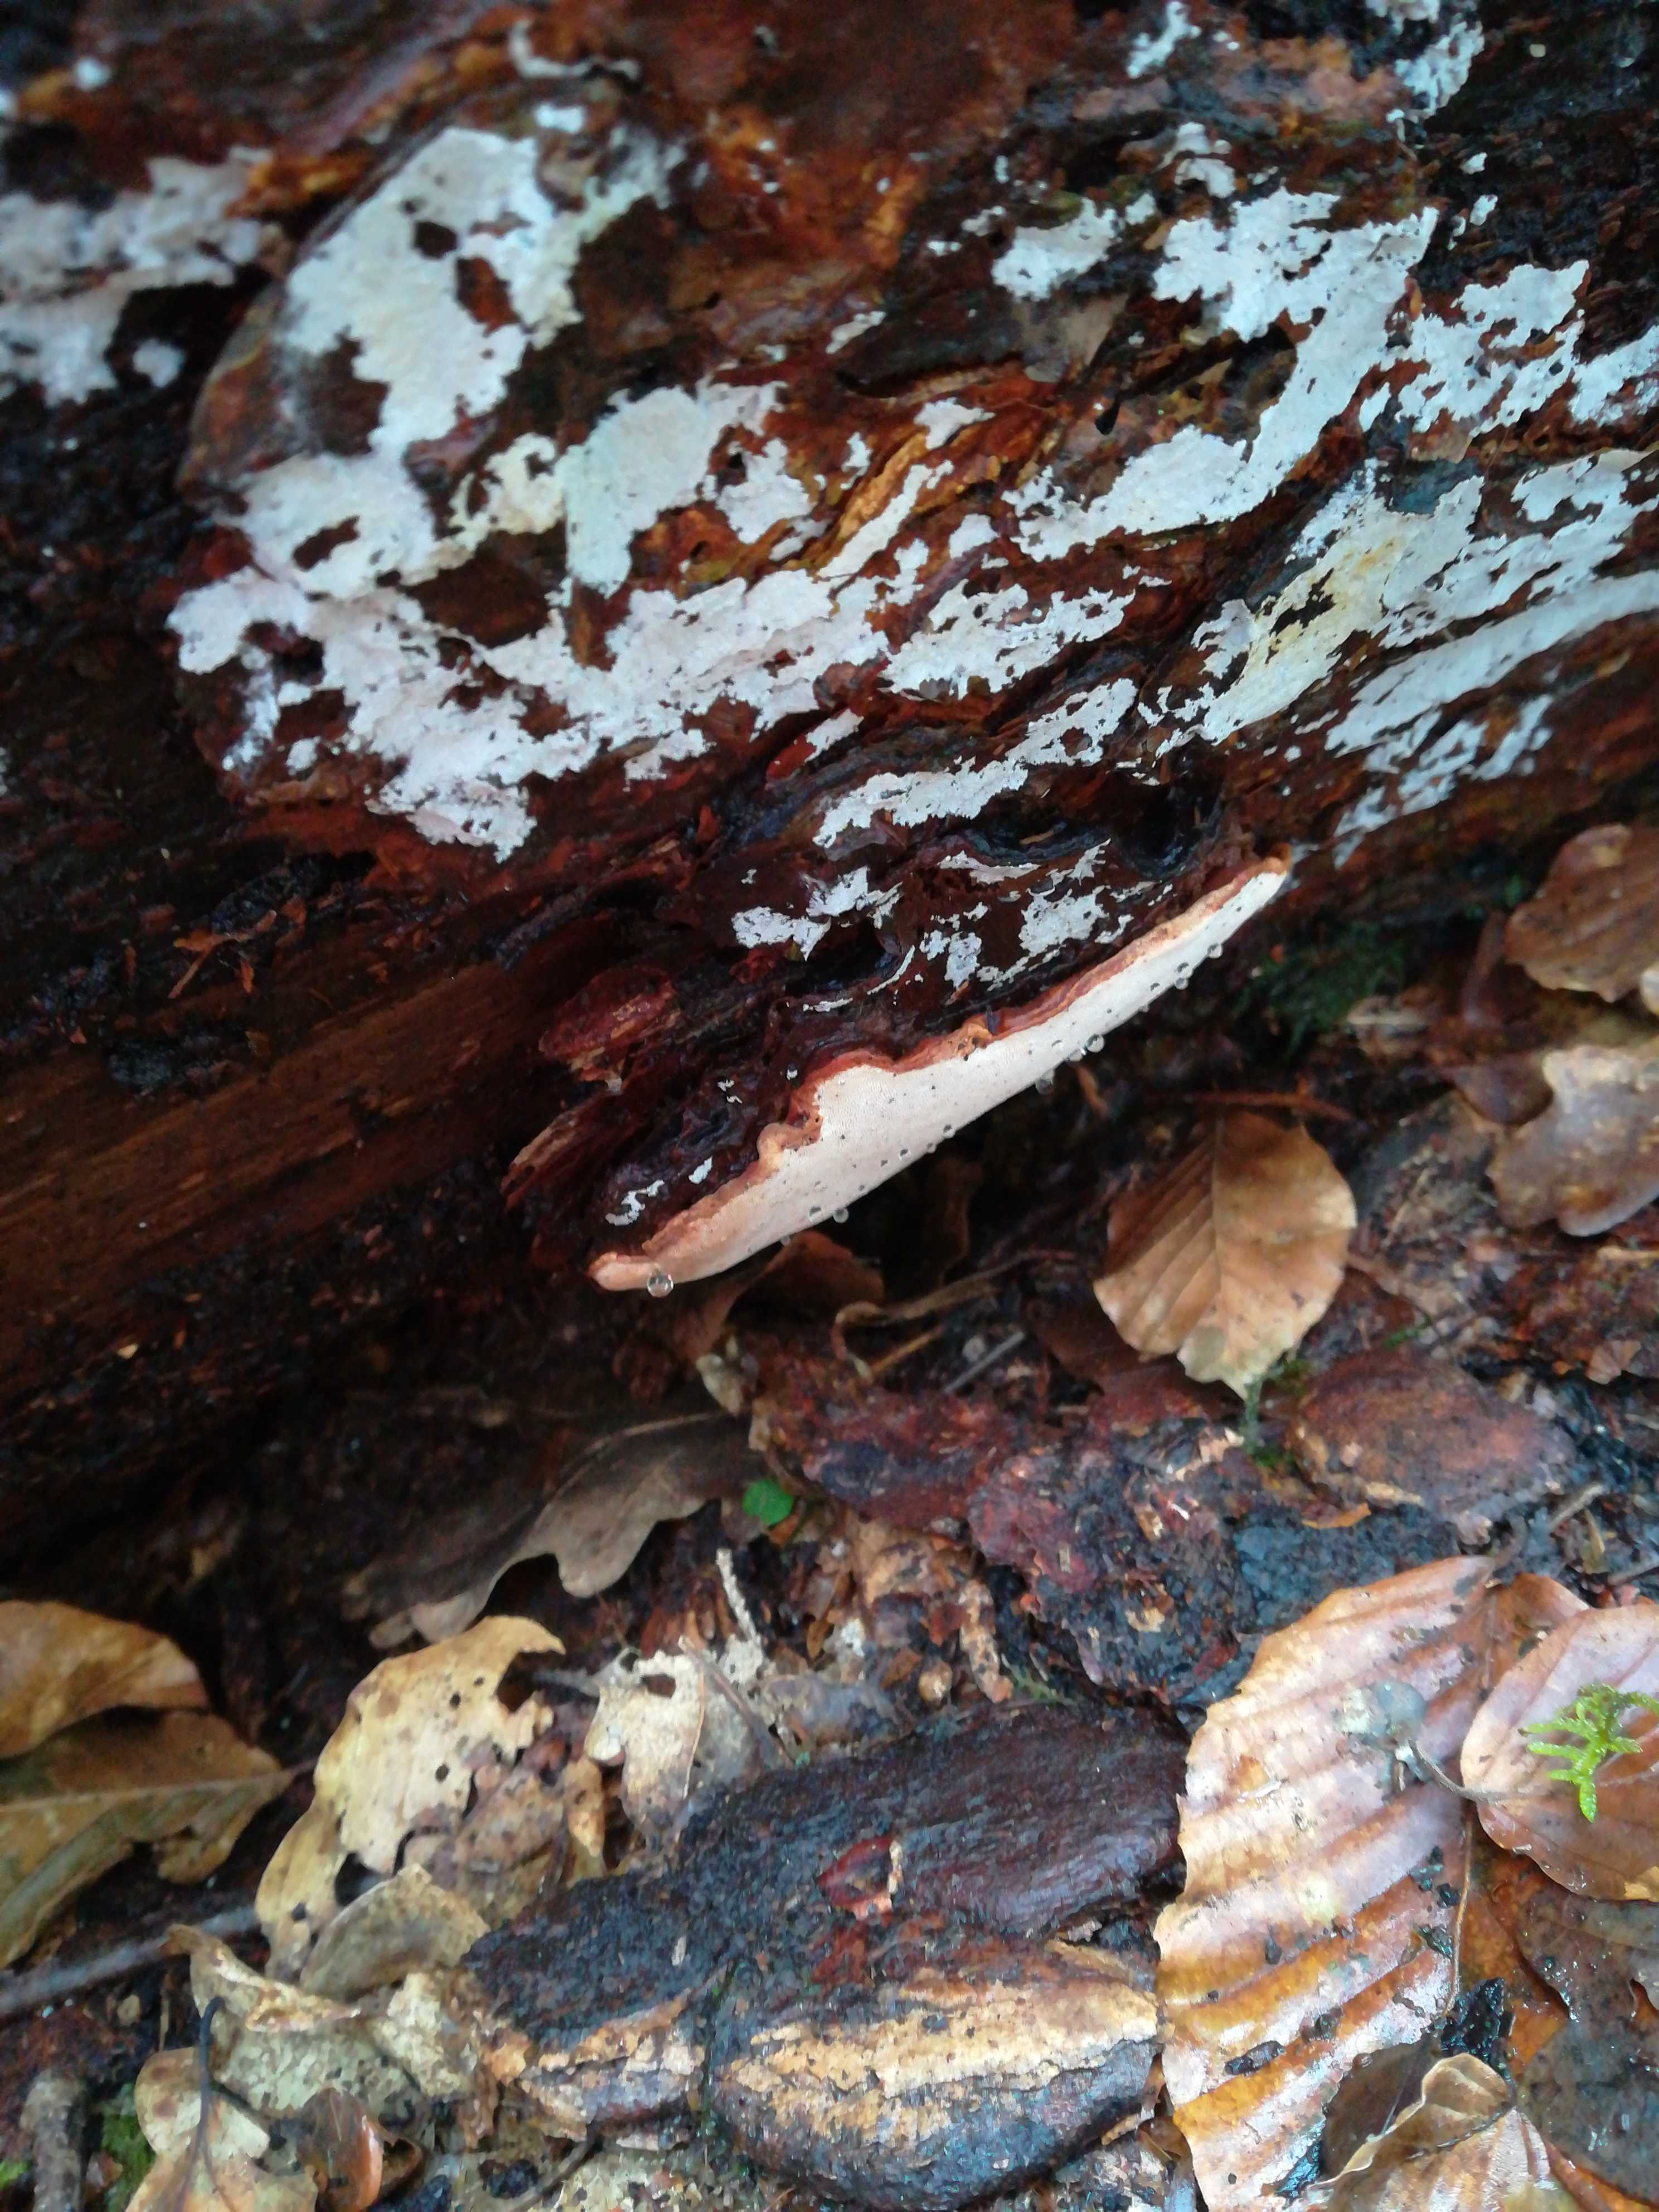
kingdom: Fungi
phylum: Basidiomycota
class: Agaricomycetes
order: Russulales
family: Bondarzewiaceae
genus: Heterobasidion
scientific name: Heterobasidion
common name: rodfordærver
